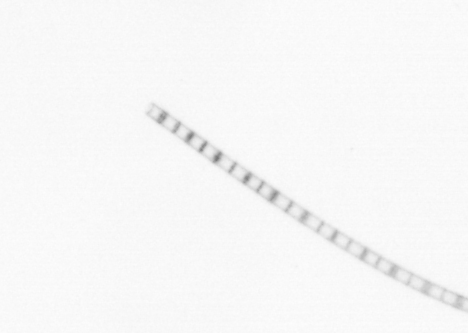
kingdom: Chromista
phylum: Ochrophyta
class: Bacillariophyceae
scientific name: Bacillariophyceae
